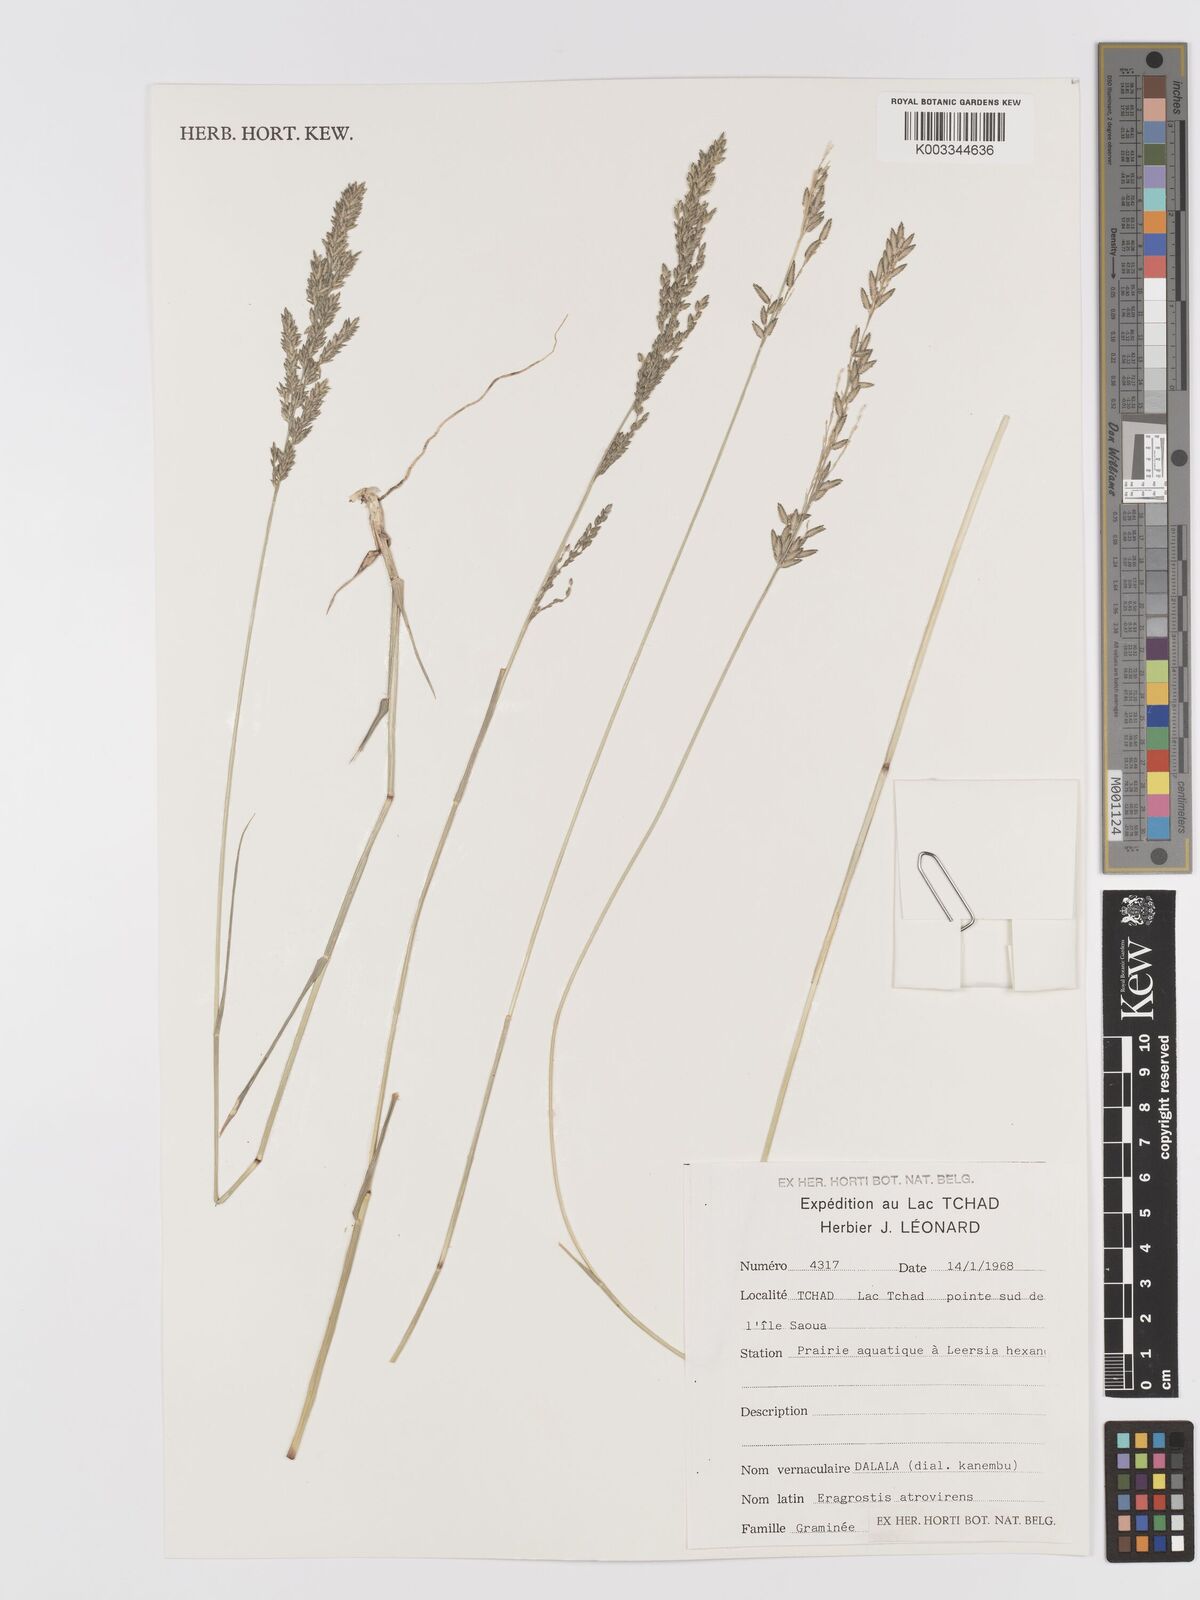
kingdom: Plantae
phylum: Tracheophyta
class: Liliopsida
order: Poales
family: Poaceae
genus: Eragrostis
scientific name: Eragrostis
